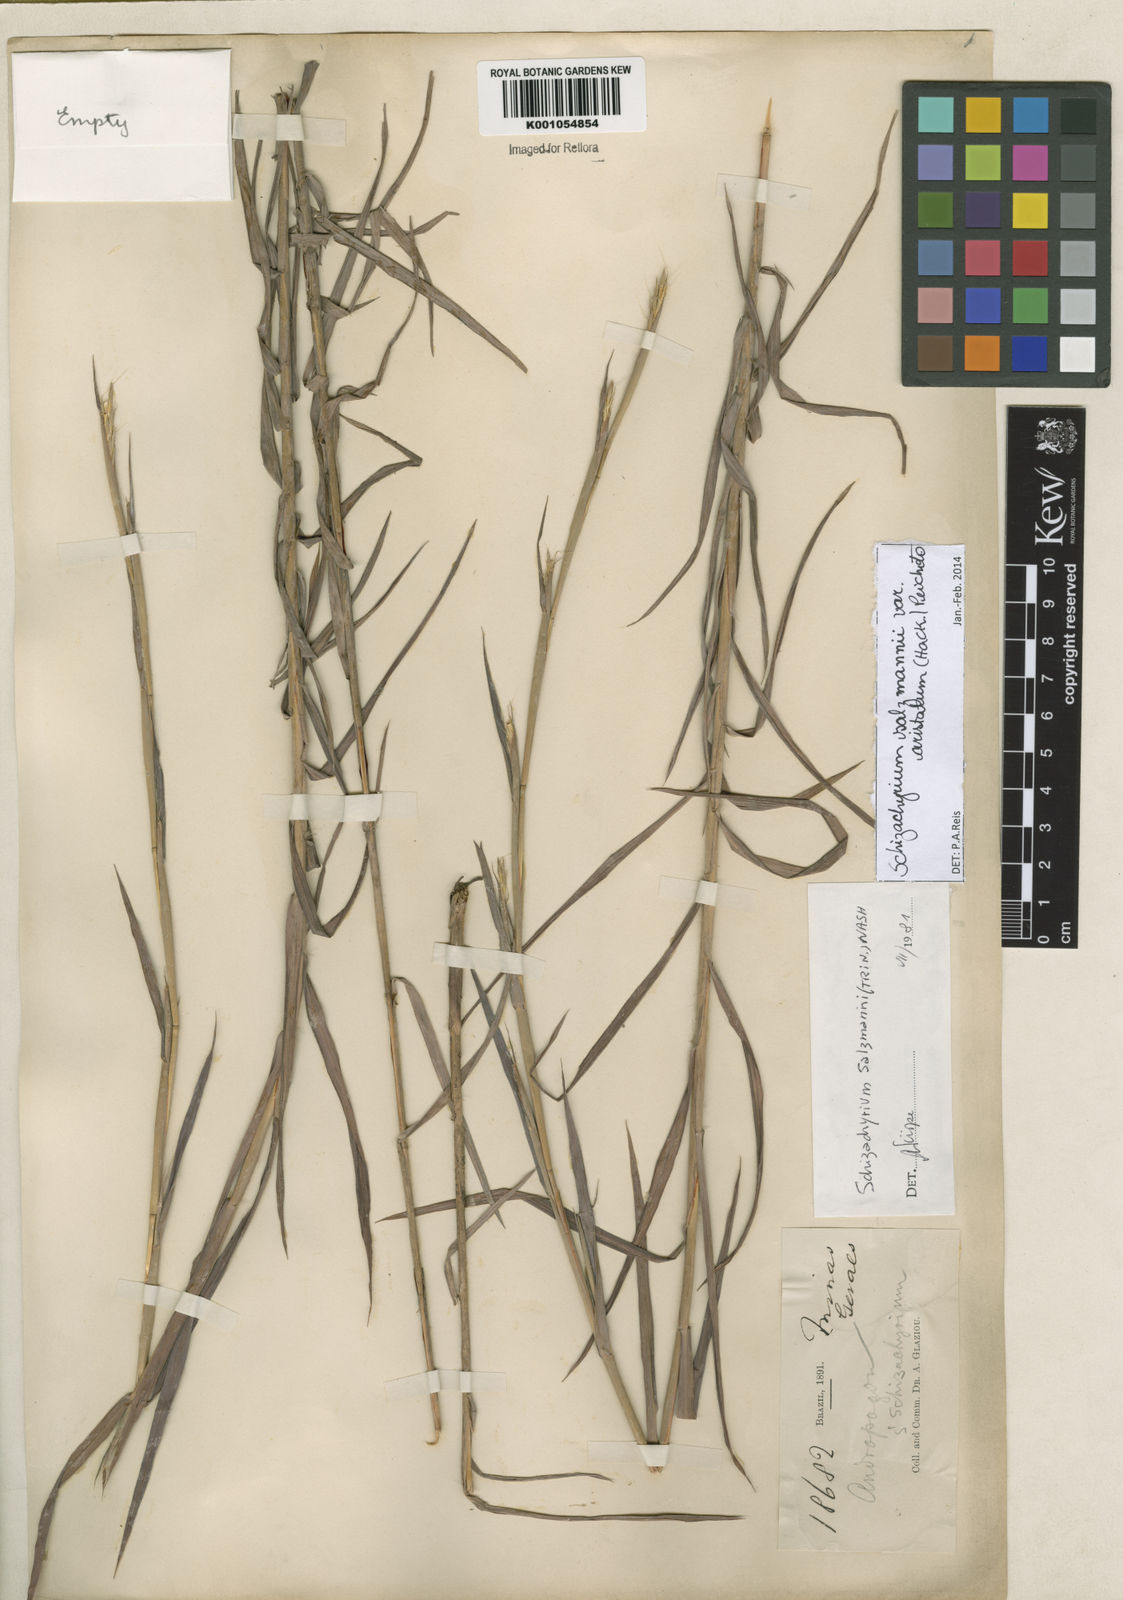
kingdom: Plantae
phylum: Tracheophyta
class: Liliopsida
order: Poales
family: Poaceae
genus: Andropogon
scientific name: Andropogon salzmannii
